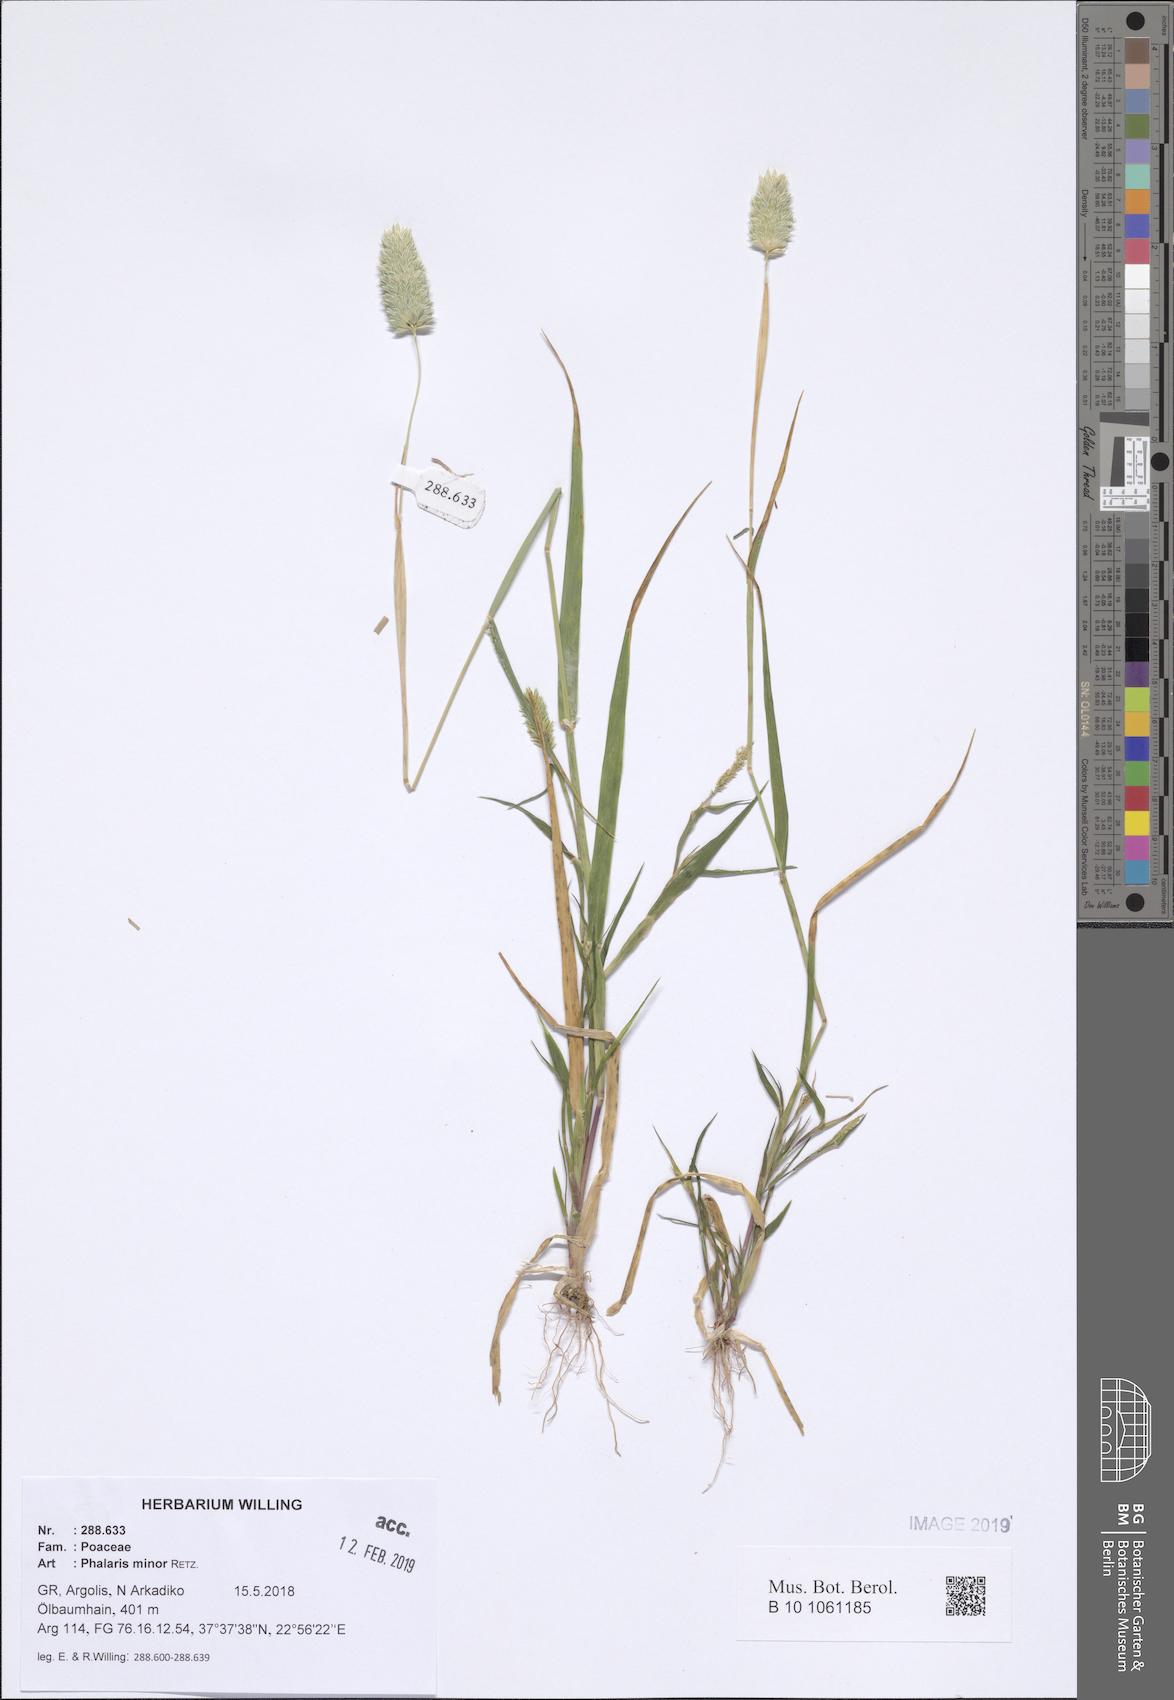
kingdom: Plantae
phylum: Tracheophyta
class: Liliopsida
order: Poales
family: Poaceae
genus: Phalaris
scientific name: Phalaris minor
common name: Littleseed canarygrass
